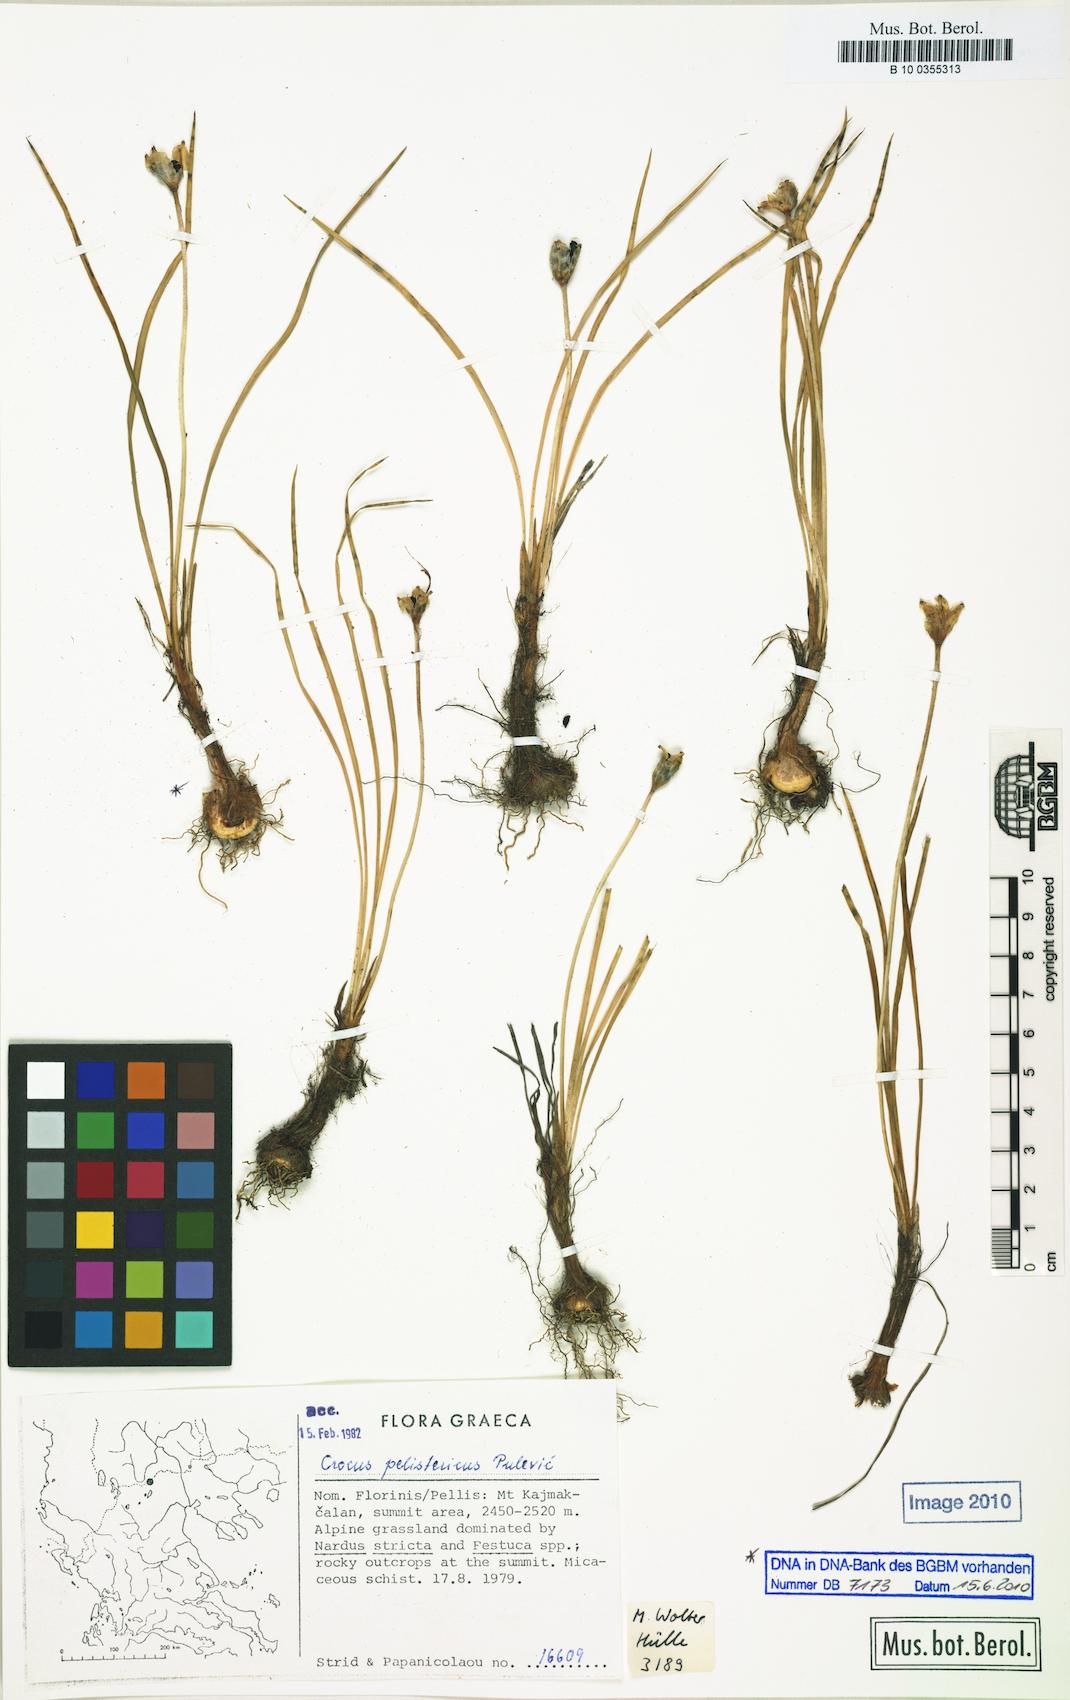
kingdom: Plantae
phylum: Tracheophyta
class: Liliopsida
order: Asparagales
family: Iridaceae
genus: Crocus
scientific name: Crocus pelistericus
